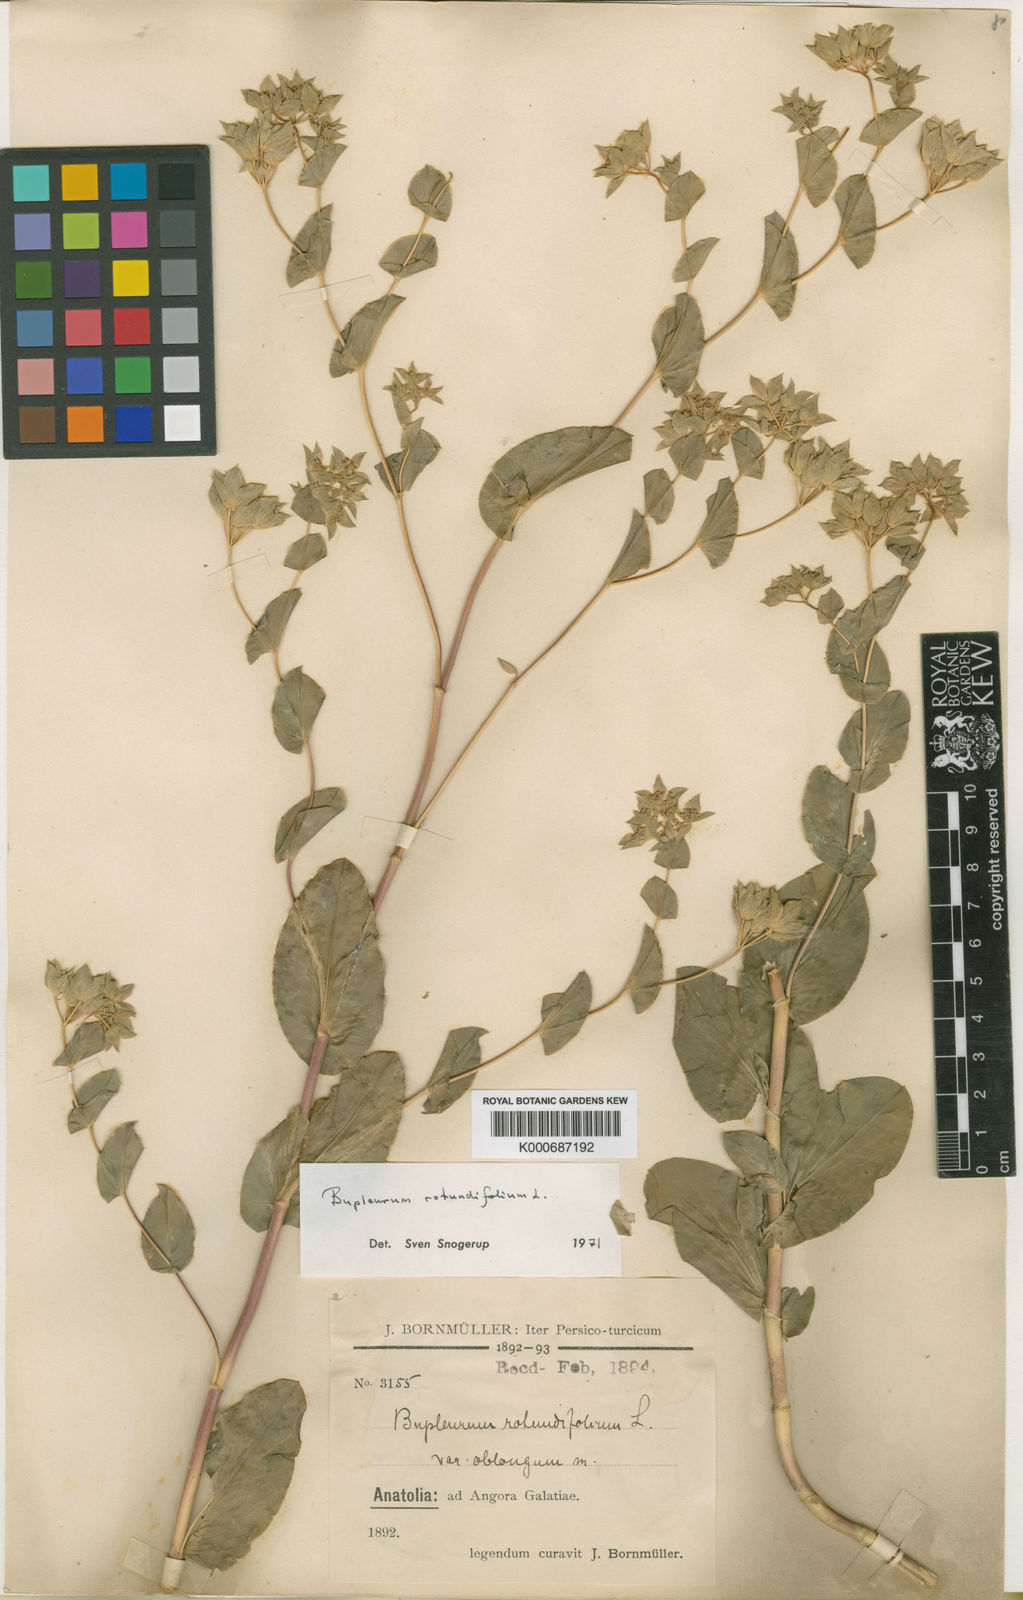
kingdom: Plantae
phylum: Tracheophyta
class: Magnoliopsida
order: Apiales
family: Apiaceae
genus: Bupleurum
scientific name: Bupleurum rotundifolium
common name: Thorow-wax
